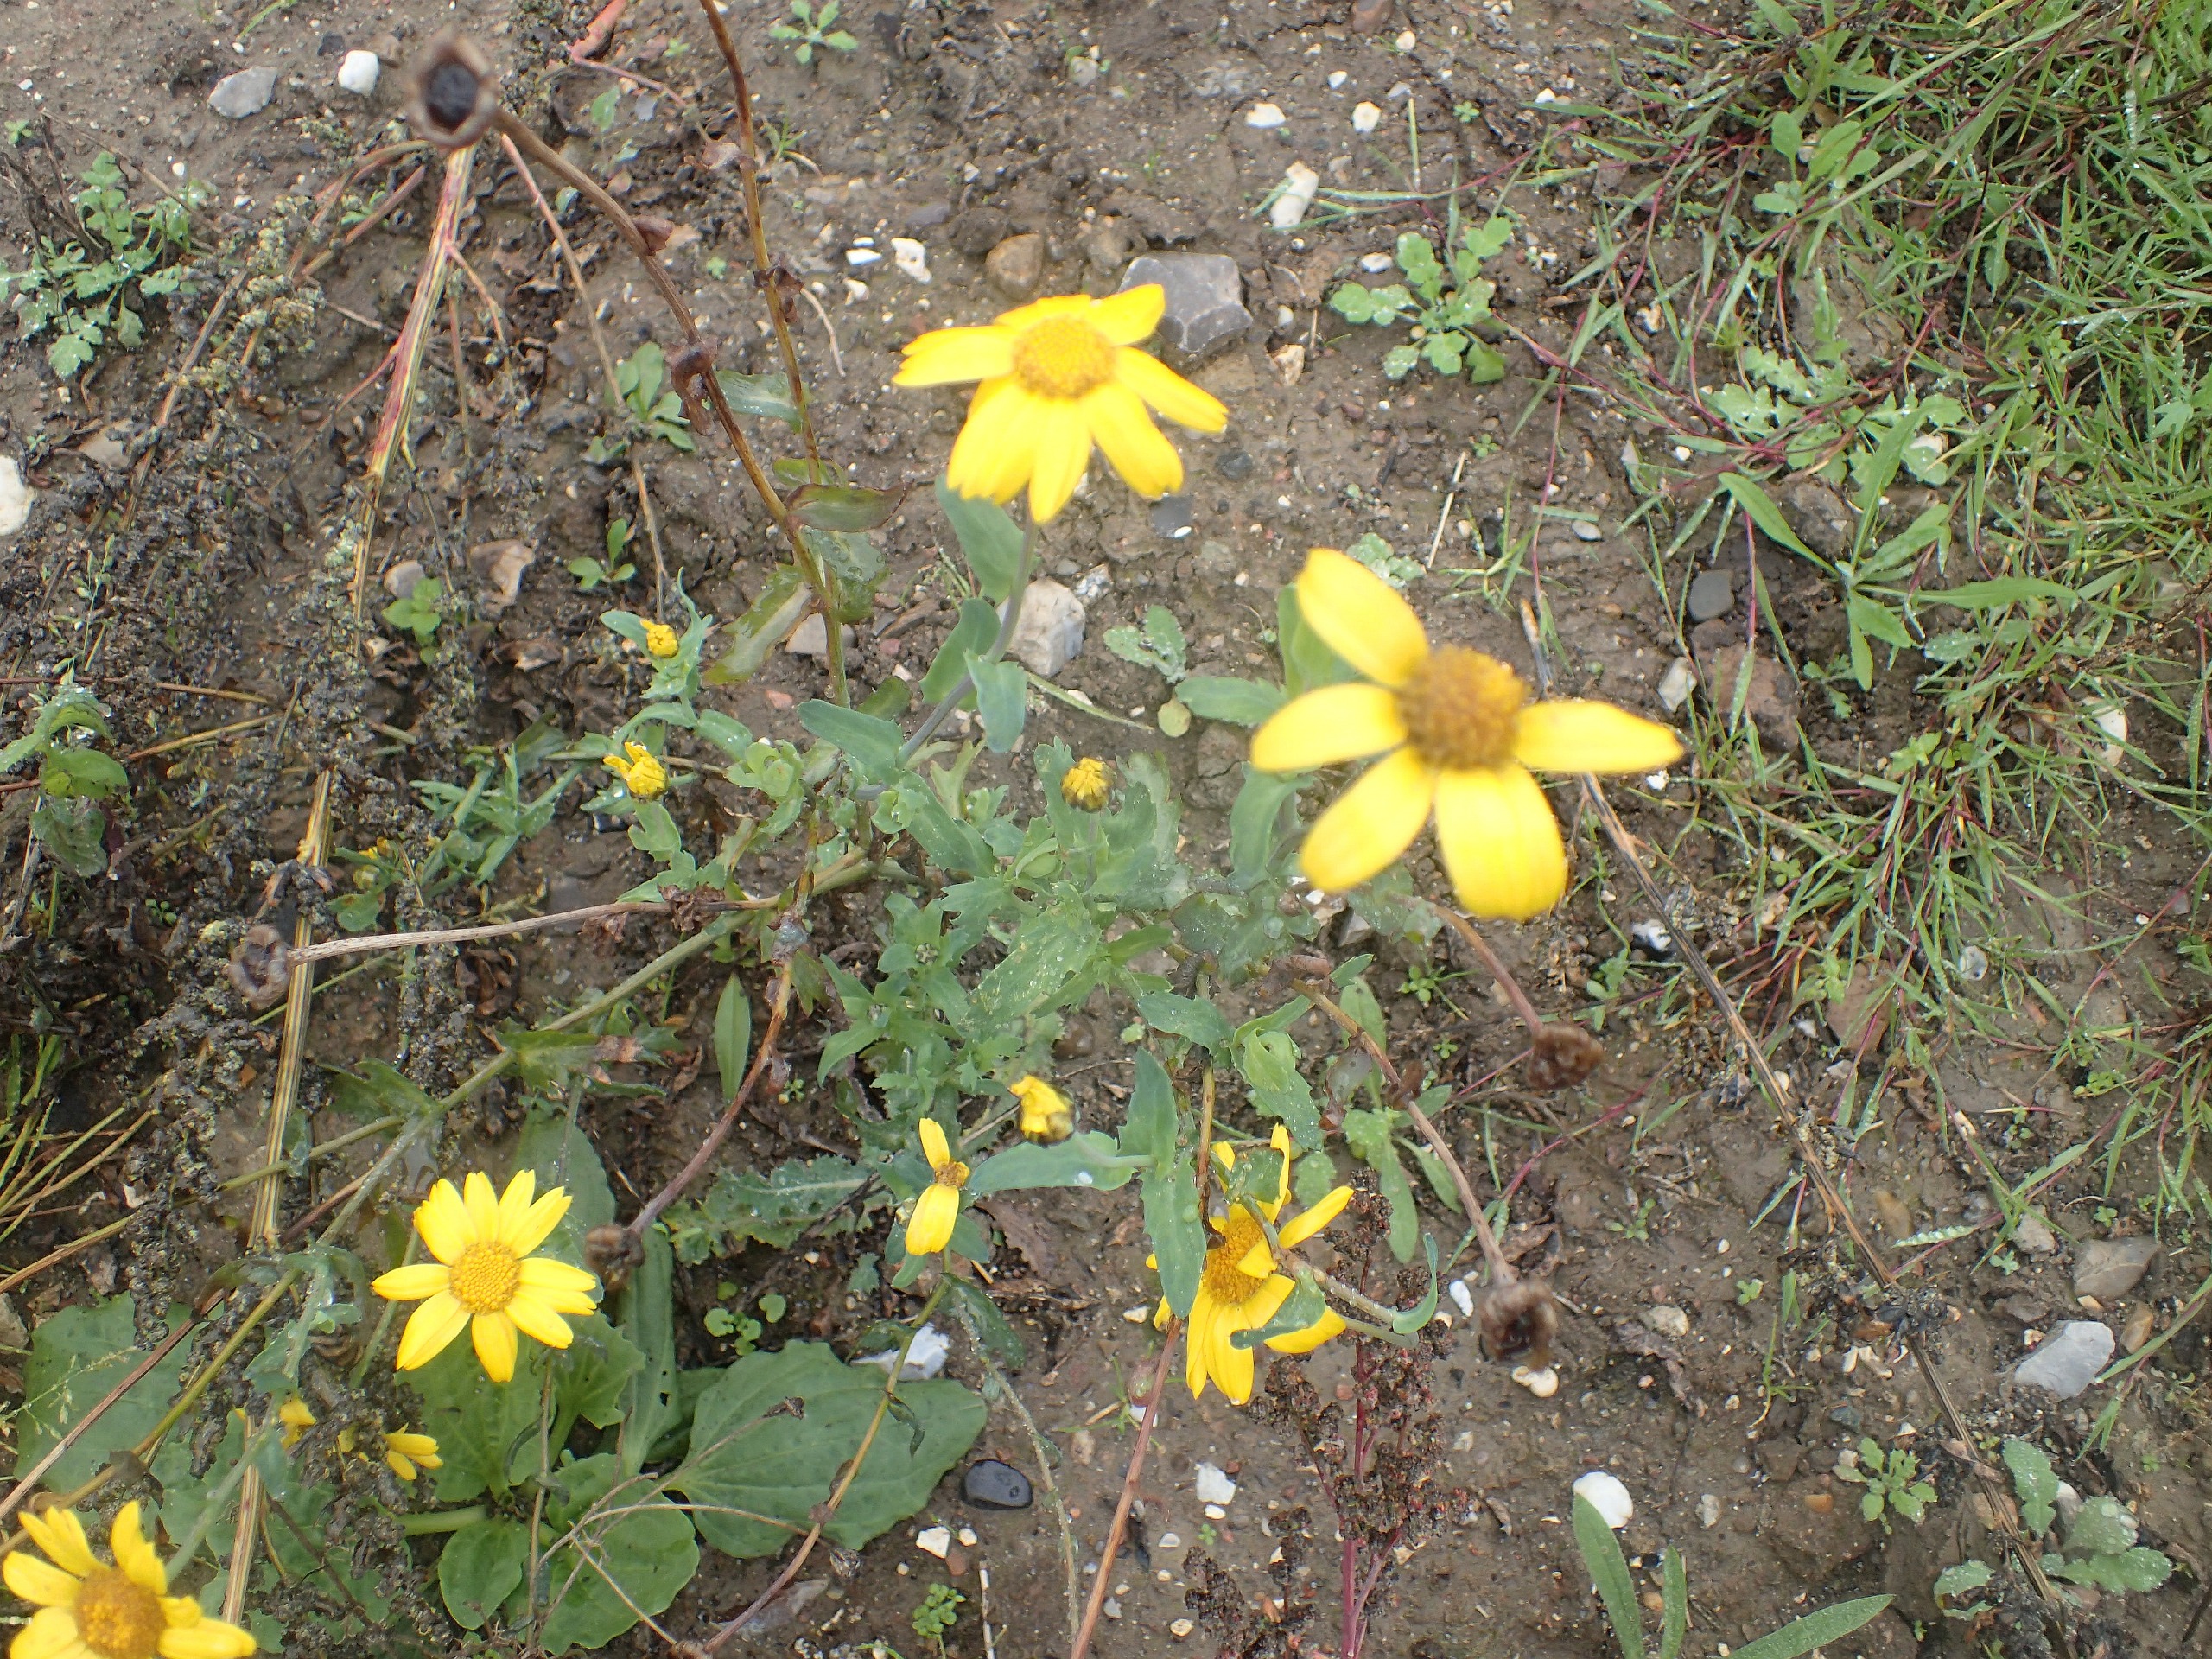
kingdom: Plantae
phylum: Tracheophyta
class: Magnoliopsida
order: Asterales
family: Asteraceae
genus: Glebionis
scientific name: Glebionis segetum
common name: Gul okseøje
